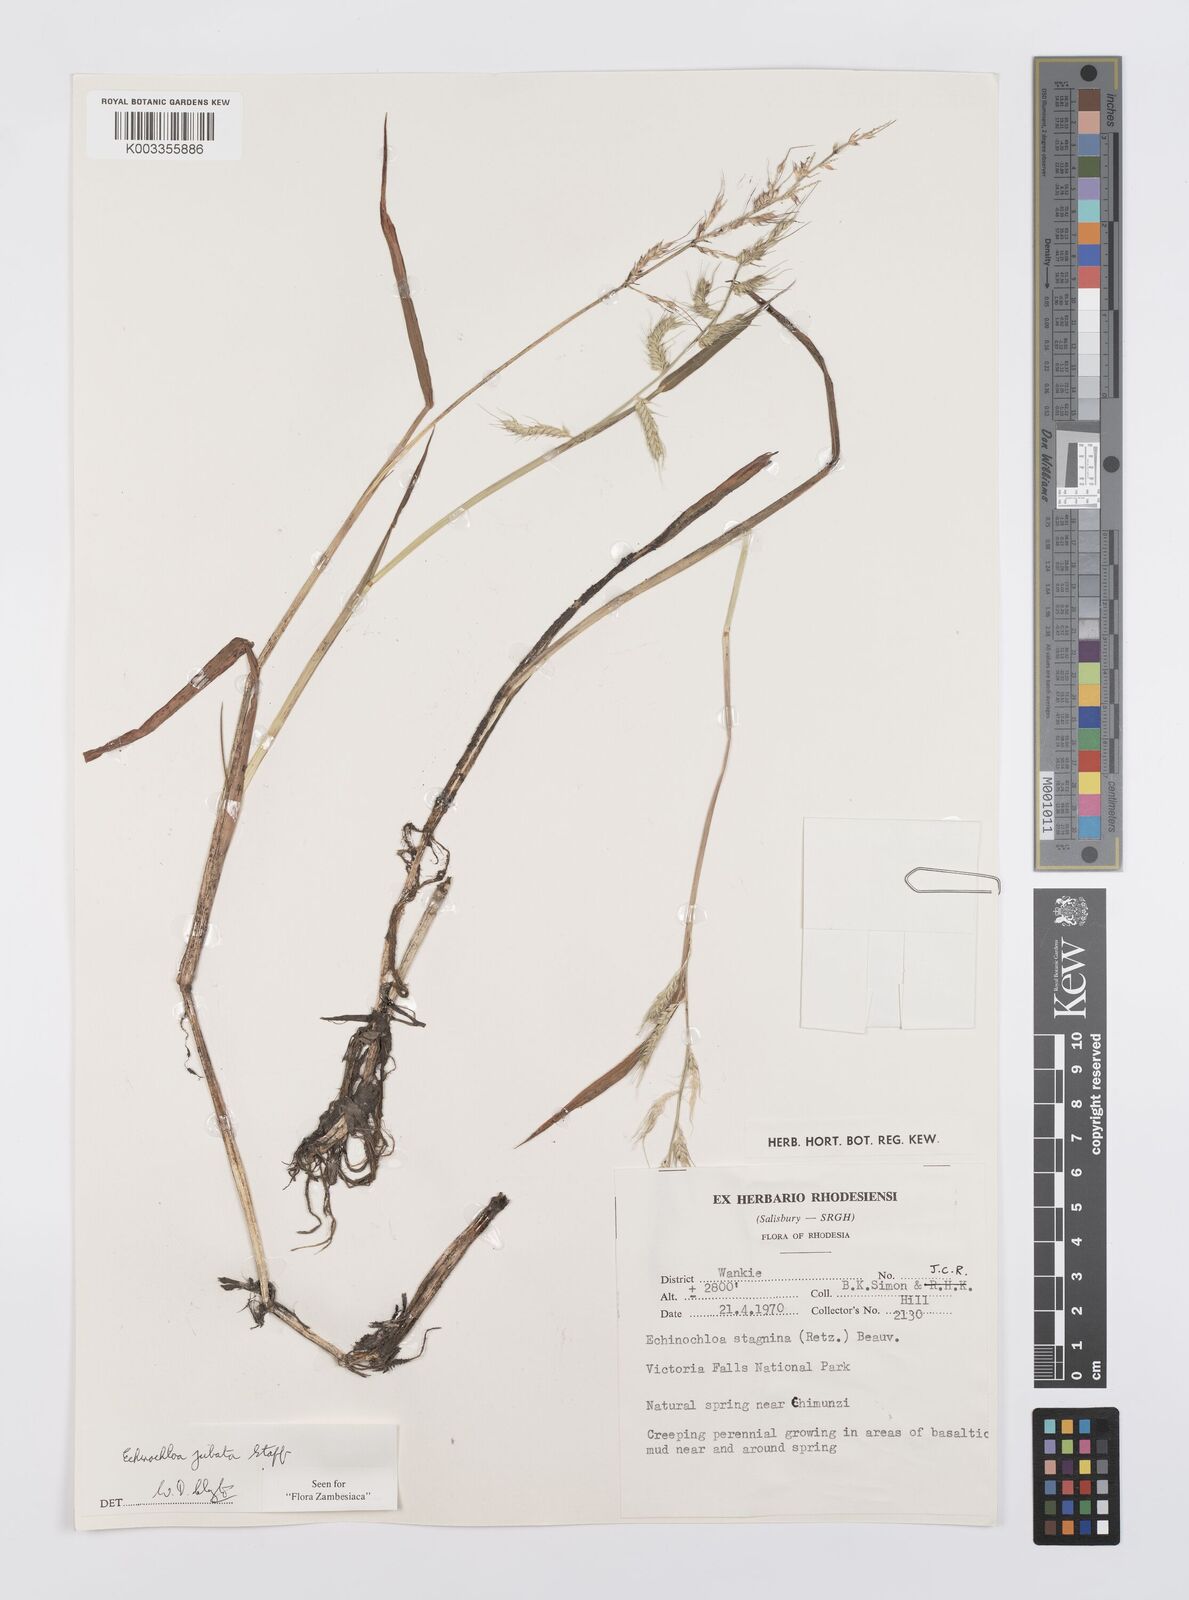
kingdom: Plantae
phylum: Tracheophyta
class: Liliopsida
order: Poales
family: Poaceae
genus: Echinochloa
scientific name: Echinochloa jubata
